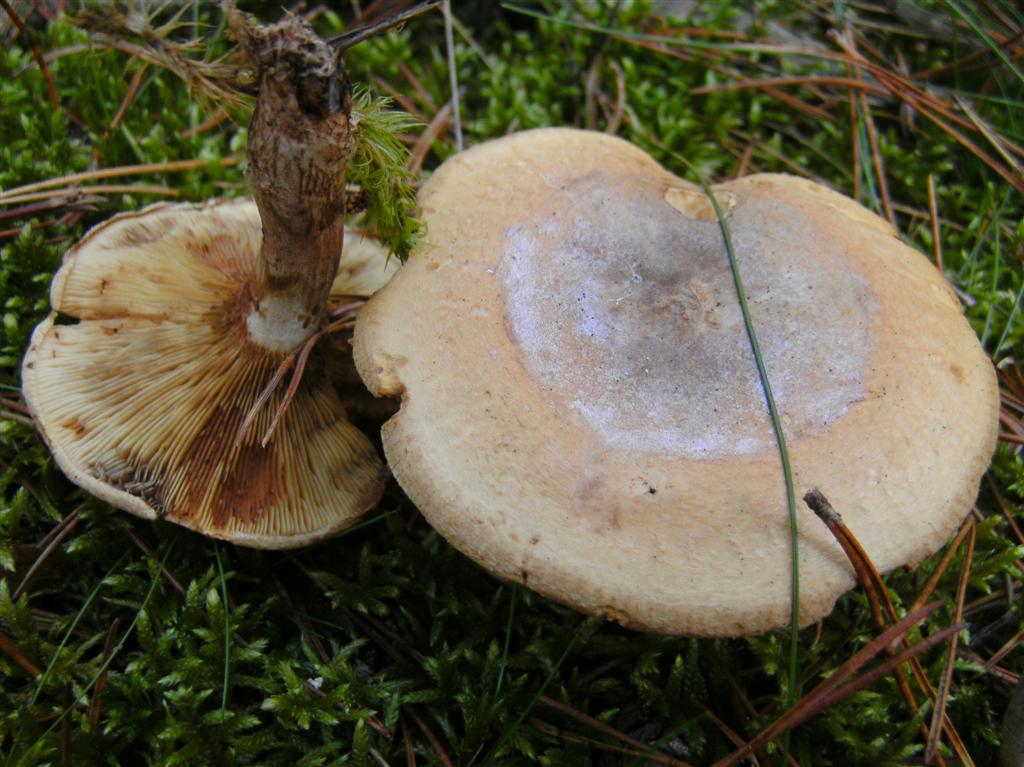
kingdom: Fungi
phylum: Basidiomycota
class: Agaricomycetes
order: Boletales
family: Paxillaceae
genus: Paxillus
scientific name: Paxillus involutus
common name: almindelig netbladhat
